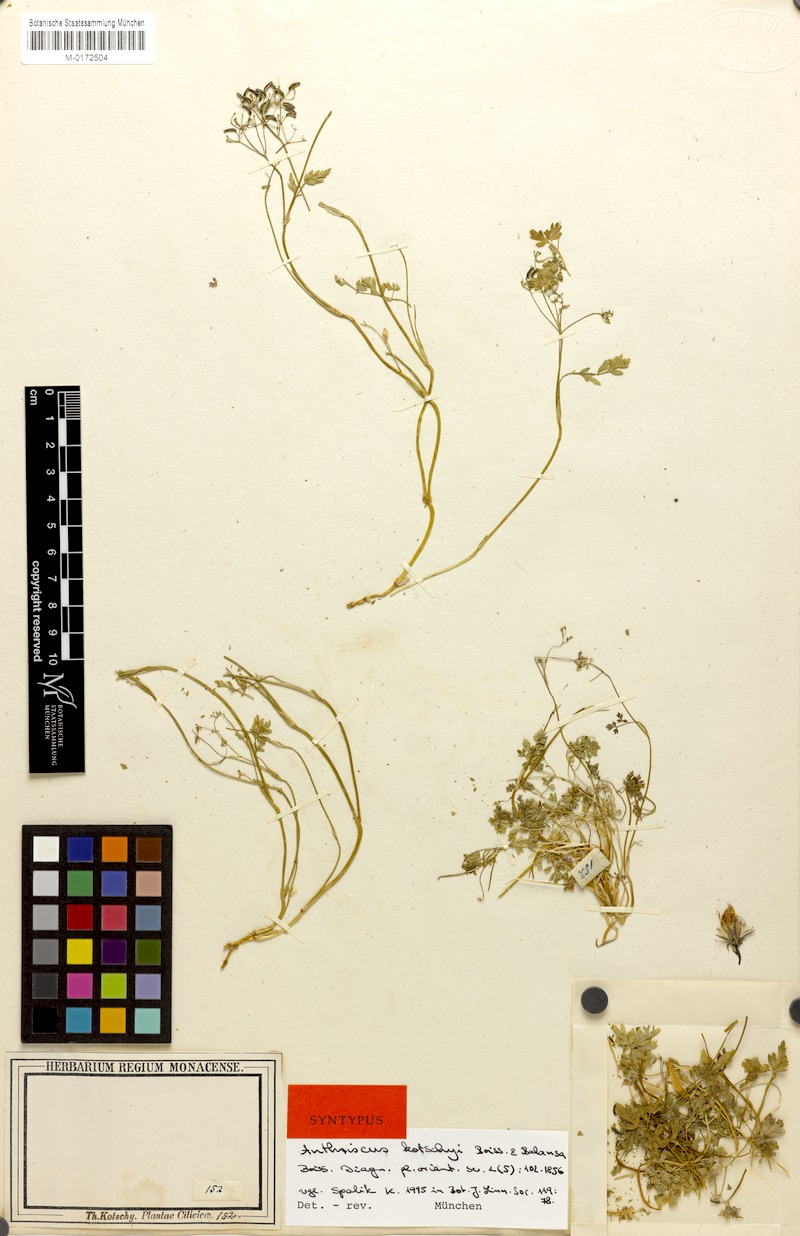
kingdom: Plantae
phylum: Tracheophyta
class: Magnoliopsida
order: Apiales
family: Apiaceae
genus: Anthriscus
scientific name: Anthriscus kotschyi
